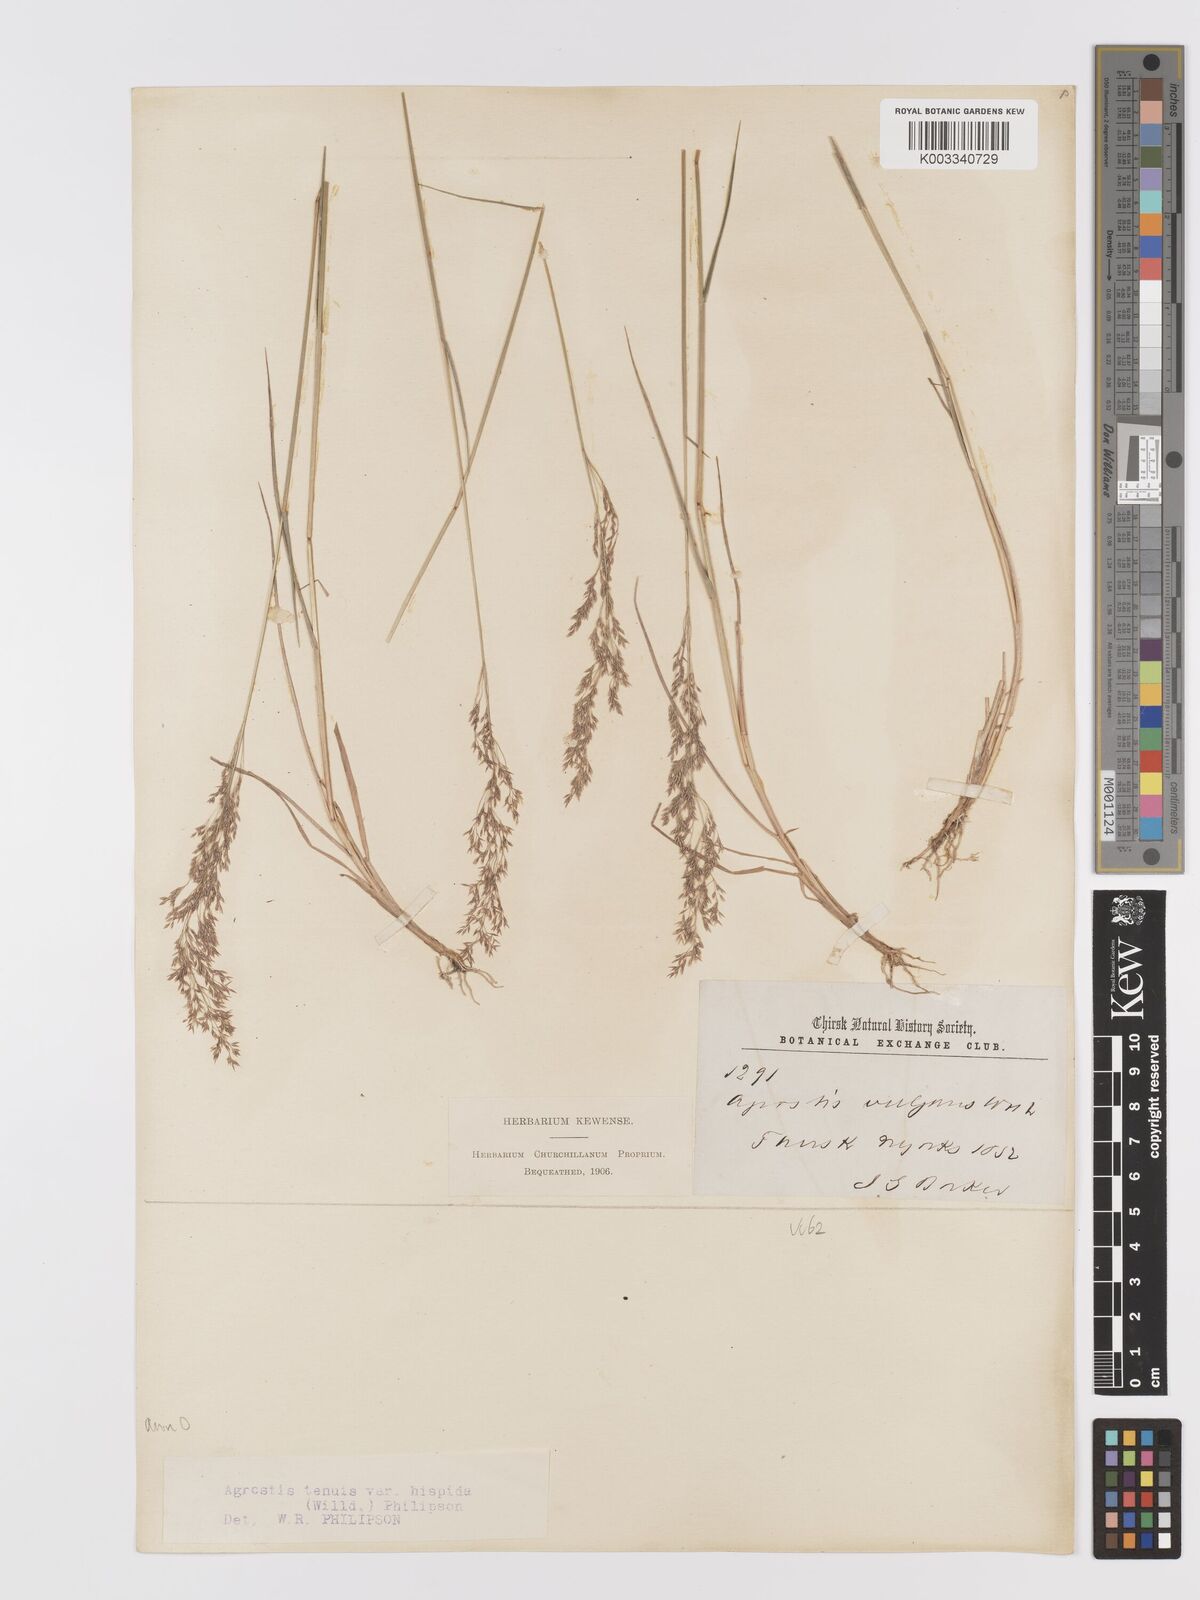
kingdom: Plantae
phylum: Tracheophyta
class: Liliopsida
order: Poales
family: Poaceae
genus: Agrostis
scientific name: Agrostis capillaris
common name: Colonial bentgrass
